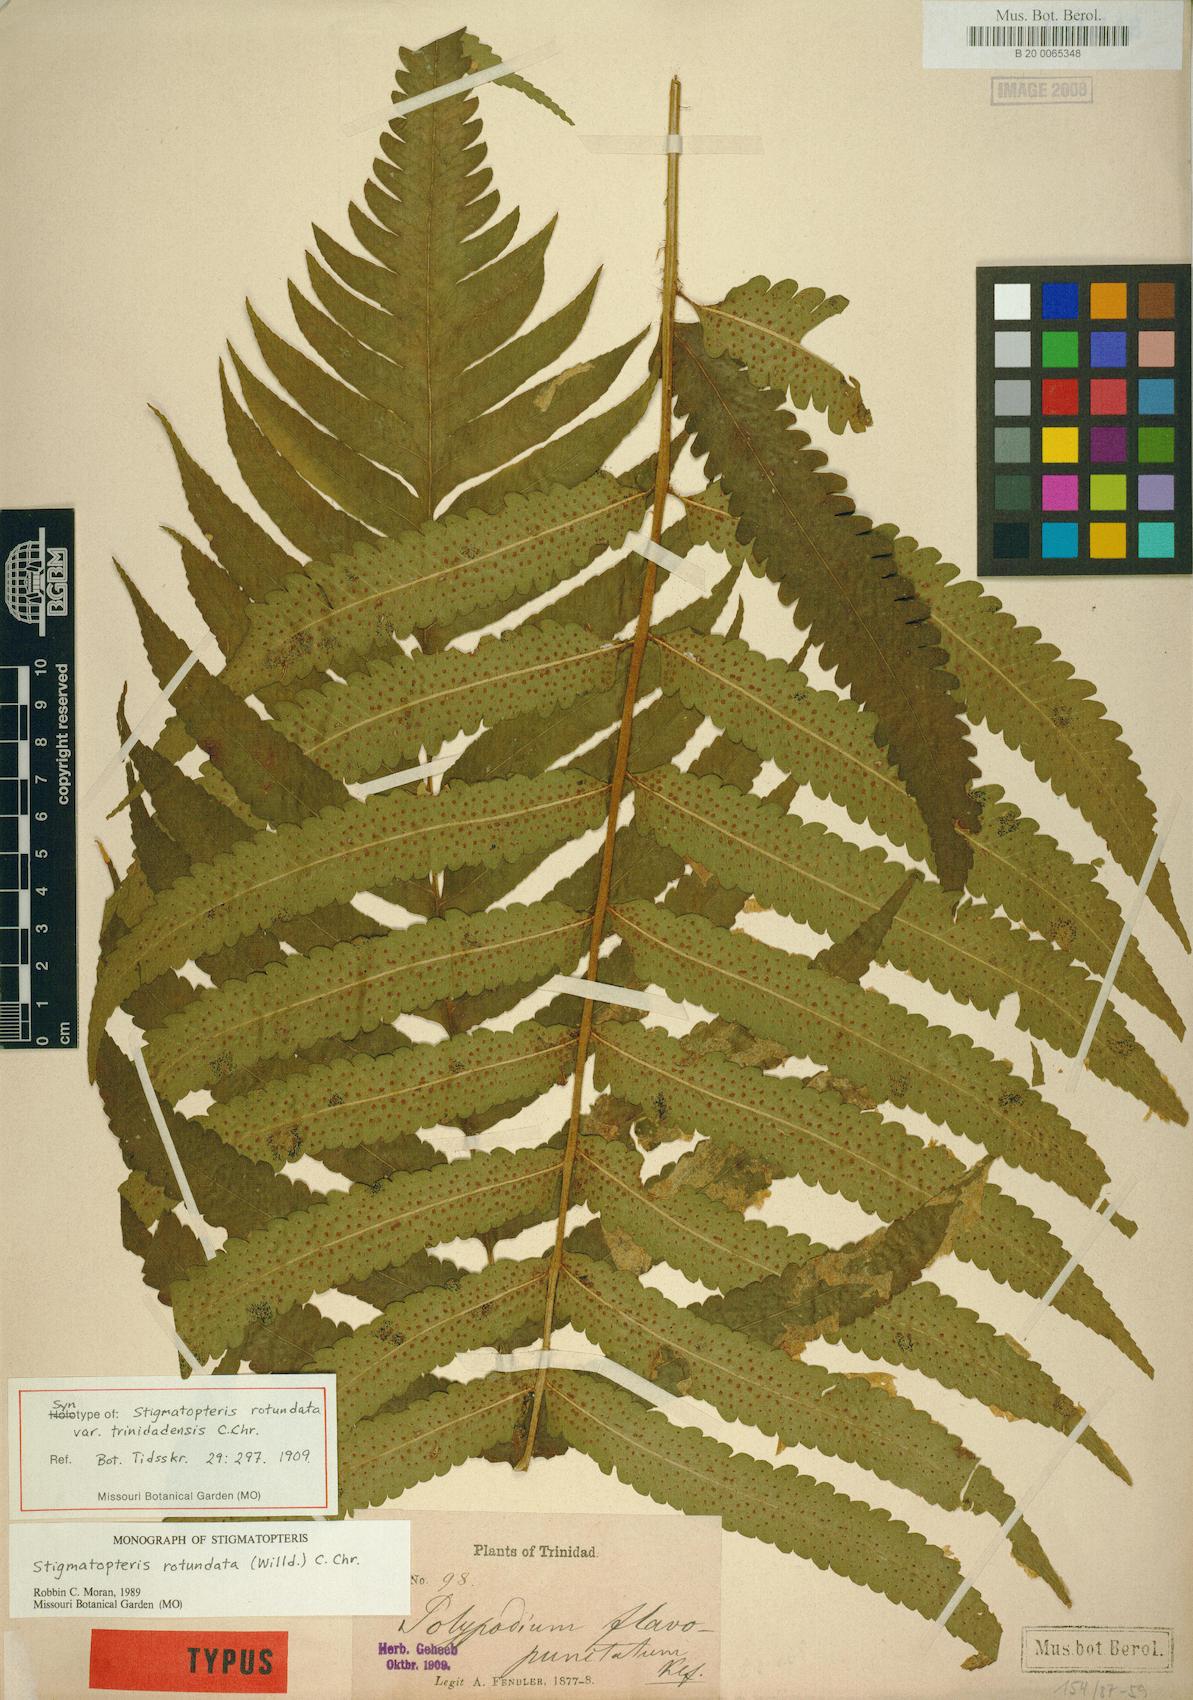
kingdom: Plantae
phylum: Tracheophyta
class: Polypodiopsida
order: Polypodiales
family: Dryopteridaceae
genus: Stigmatopteris
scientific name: Stigmatopteris rotundata
